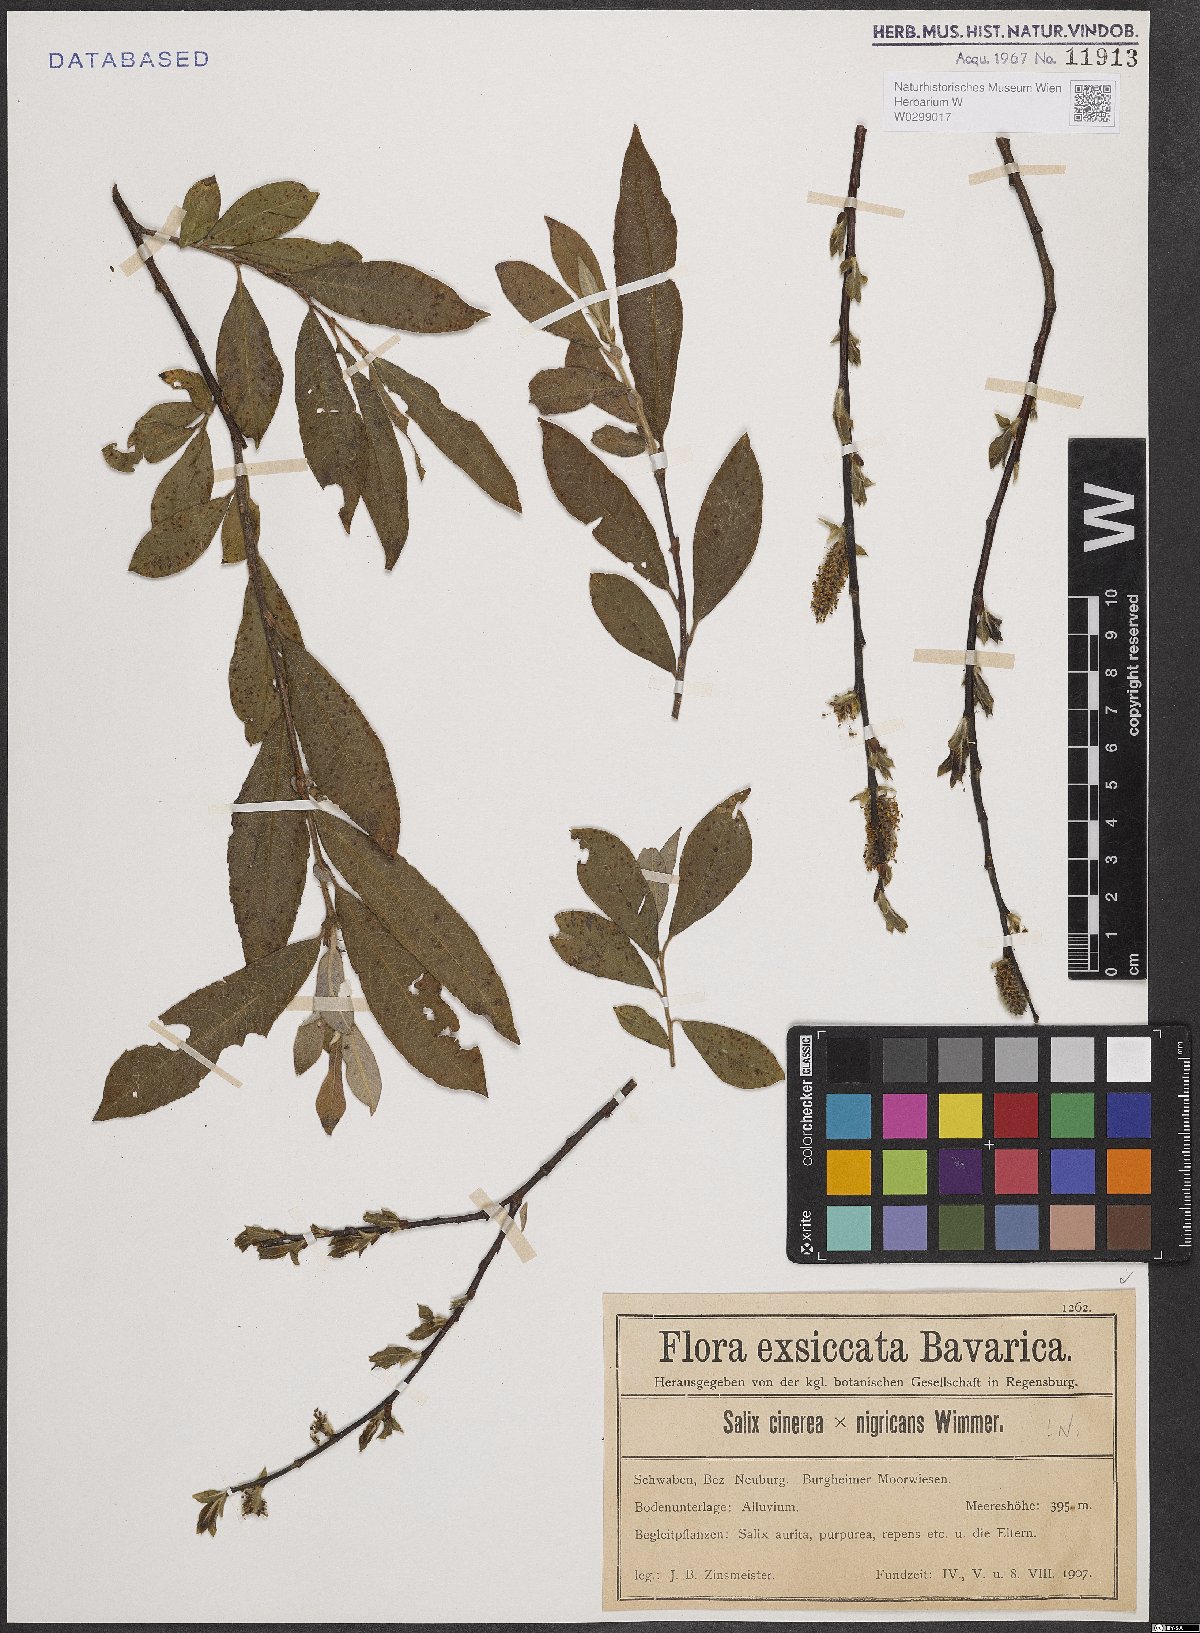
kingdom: Plantae
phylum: Tracheophyta
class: Magnoliopsida
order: Malpighiales
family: Salicaceae
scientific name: Salicaceae
